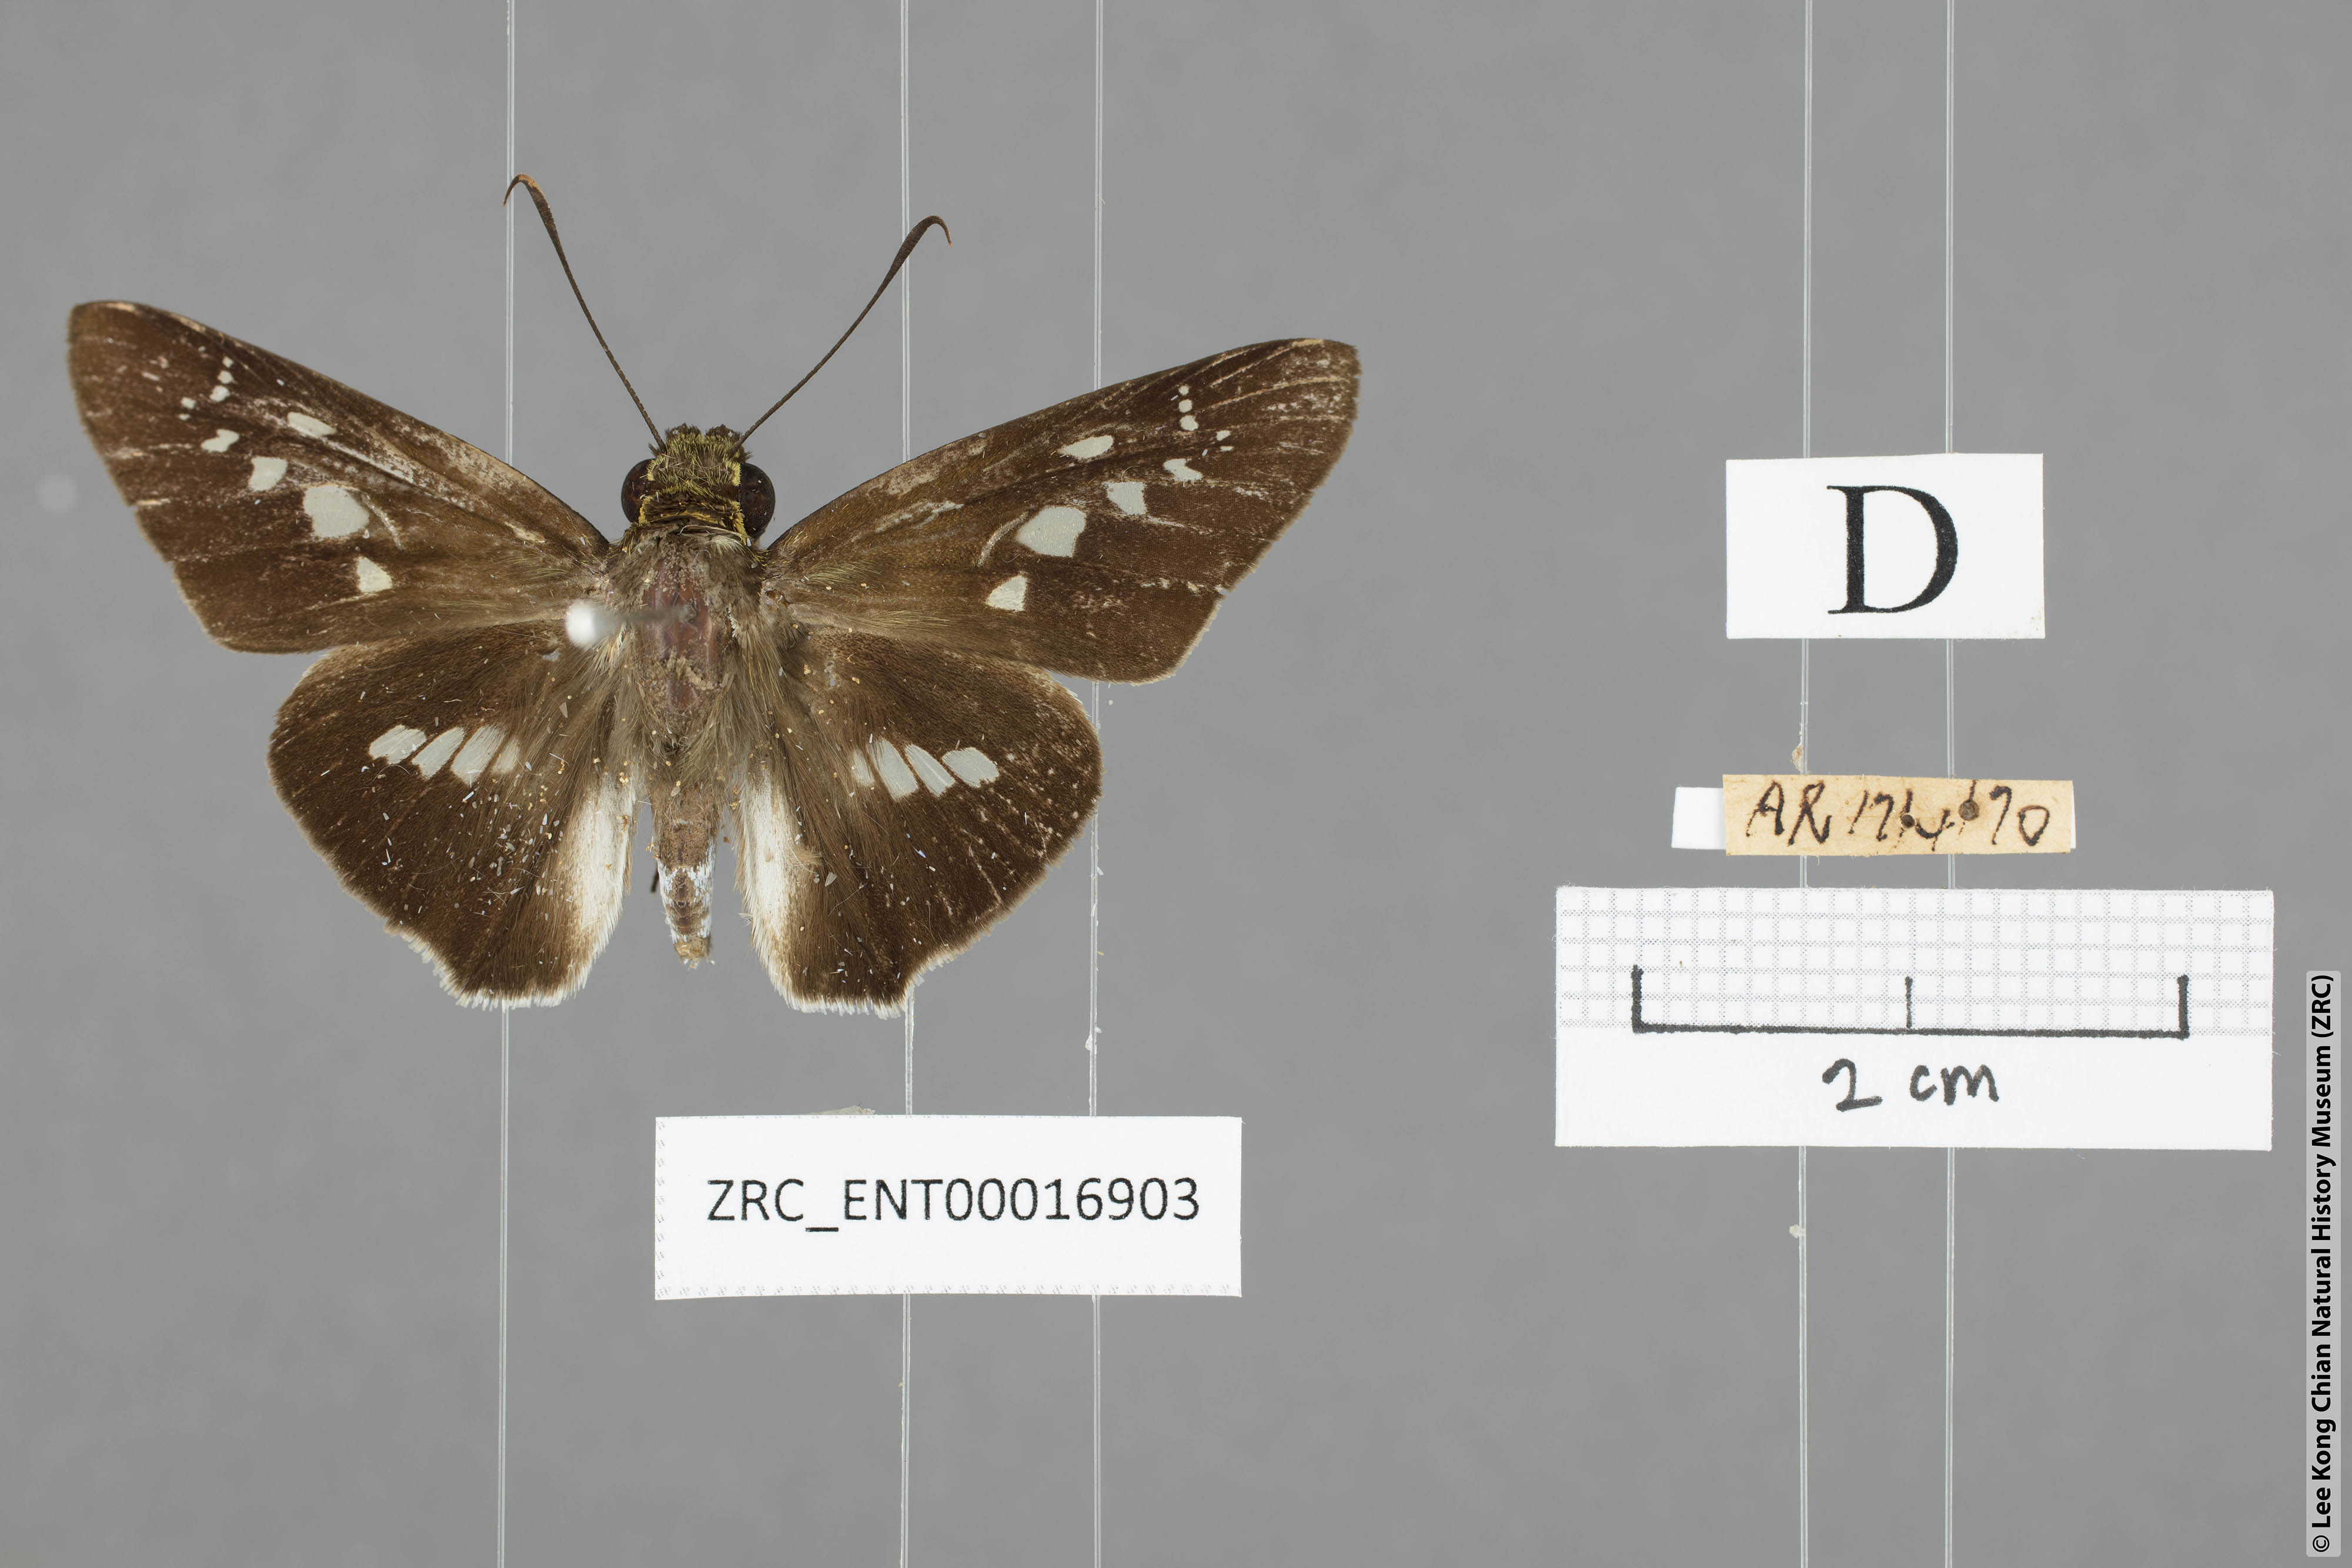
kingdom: Animalia
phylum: Arthropoda
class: Insecta
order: Lepidoptera
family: Hesperiidae
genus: Eetion
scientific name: Eetion elia
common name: White spotted palmer
